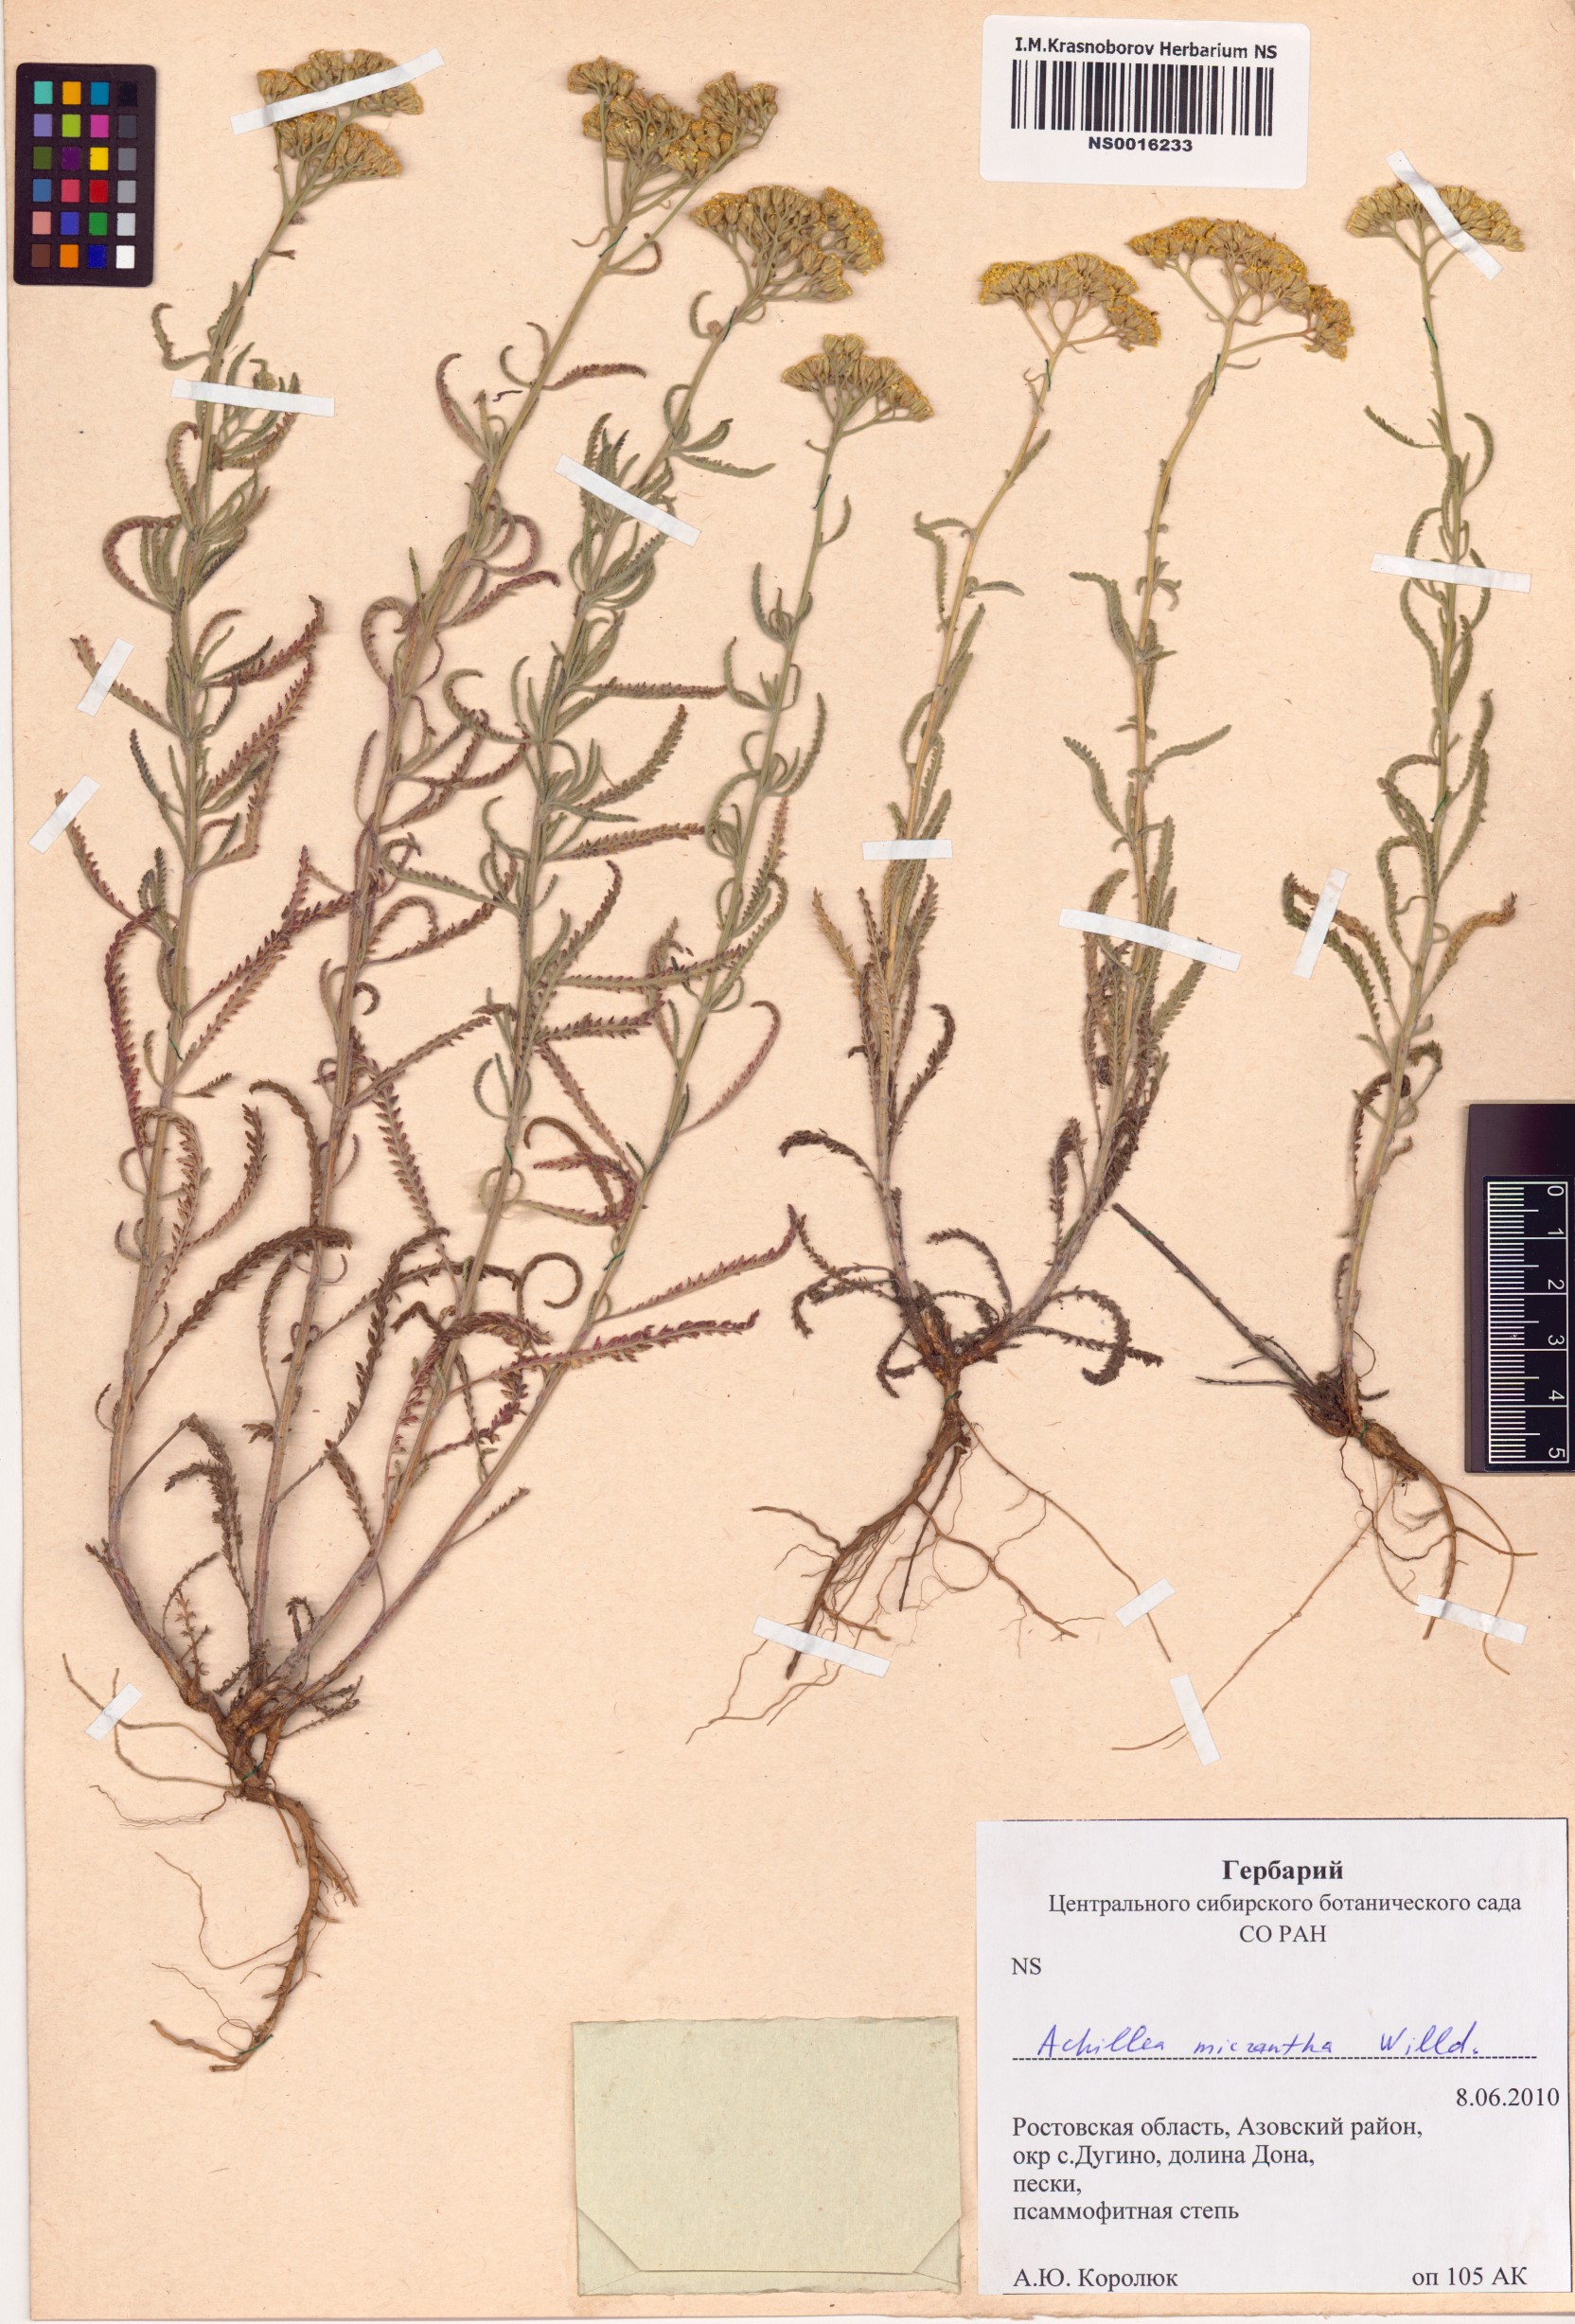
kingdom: Plantae
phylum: Tracheophyta
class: Magnoliopsida
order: Asterales
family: Asteraceae
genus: Achillea
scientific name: Achillea micrantha
